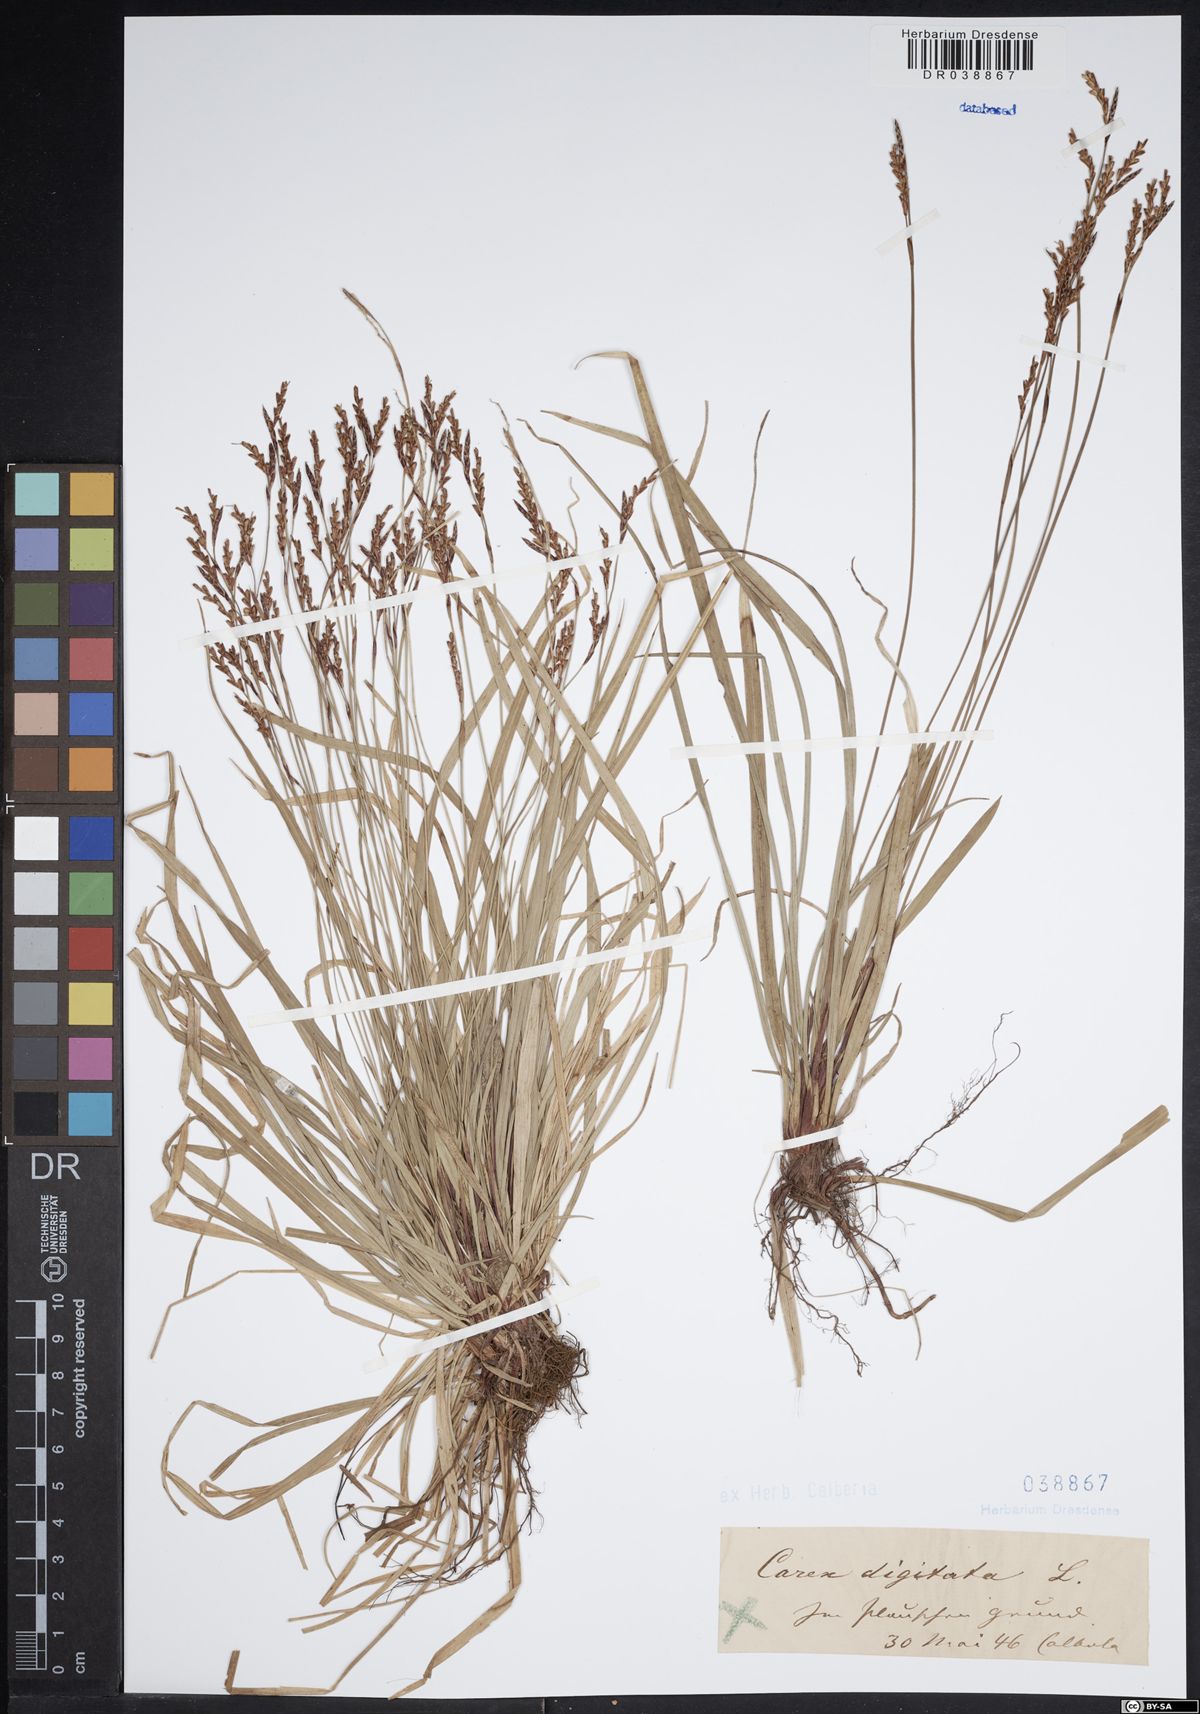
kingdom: Plantae
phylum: Tracheophyta
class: Liliopsida
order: Poales
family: Cyperaceae
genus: Carex
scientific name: Carex digitata
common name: Fingered sedge
